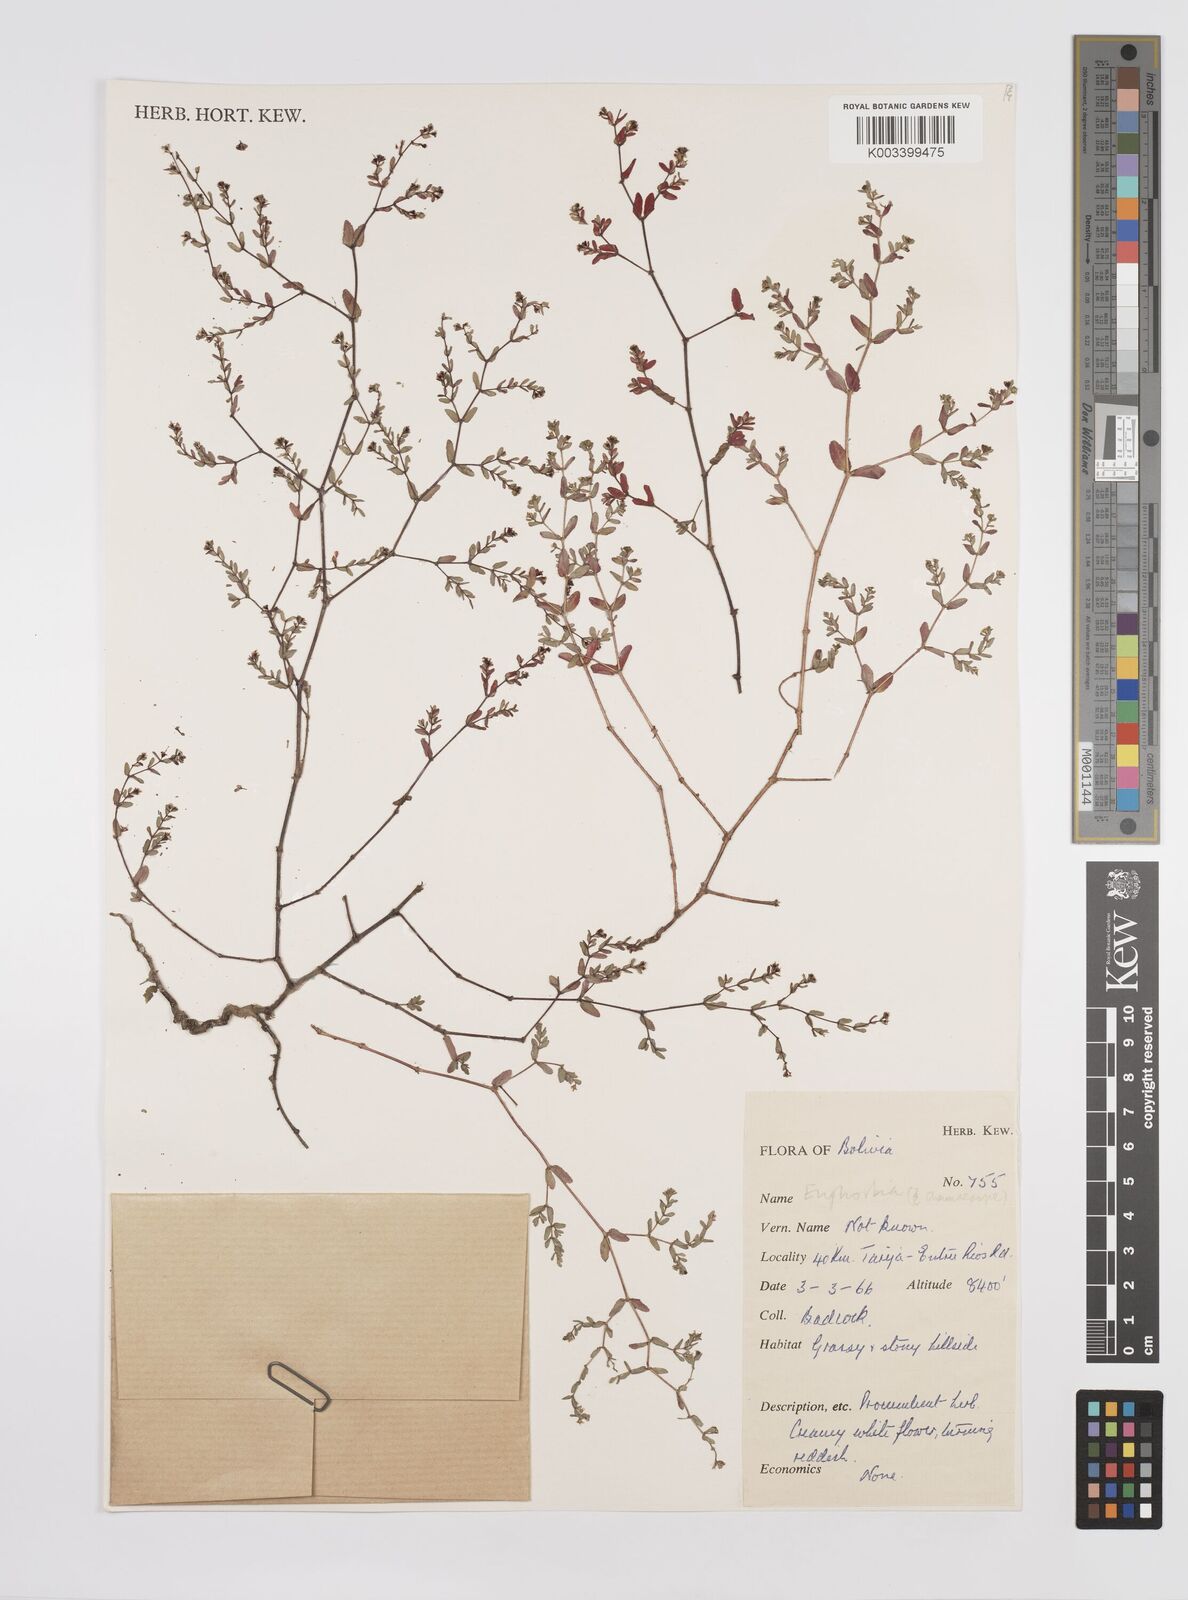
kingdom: Plantae
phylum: Tracheophyta
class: Magnoliopsida
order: Malpighiales
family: Euphorbiaceae
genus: Euphorbia
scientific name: Euphorbia
